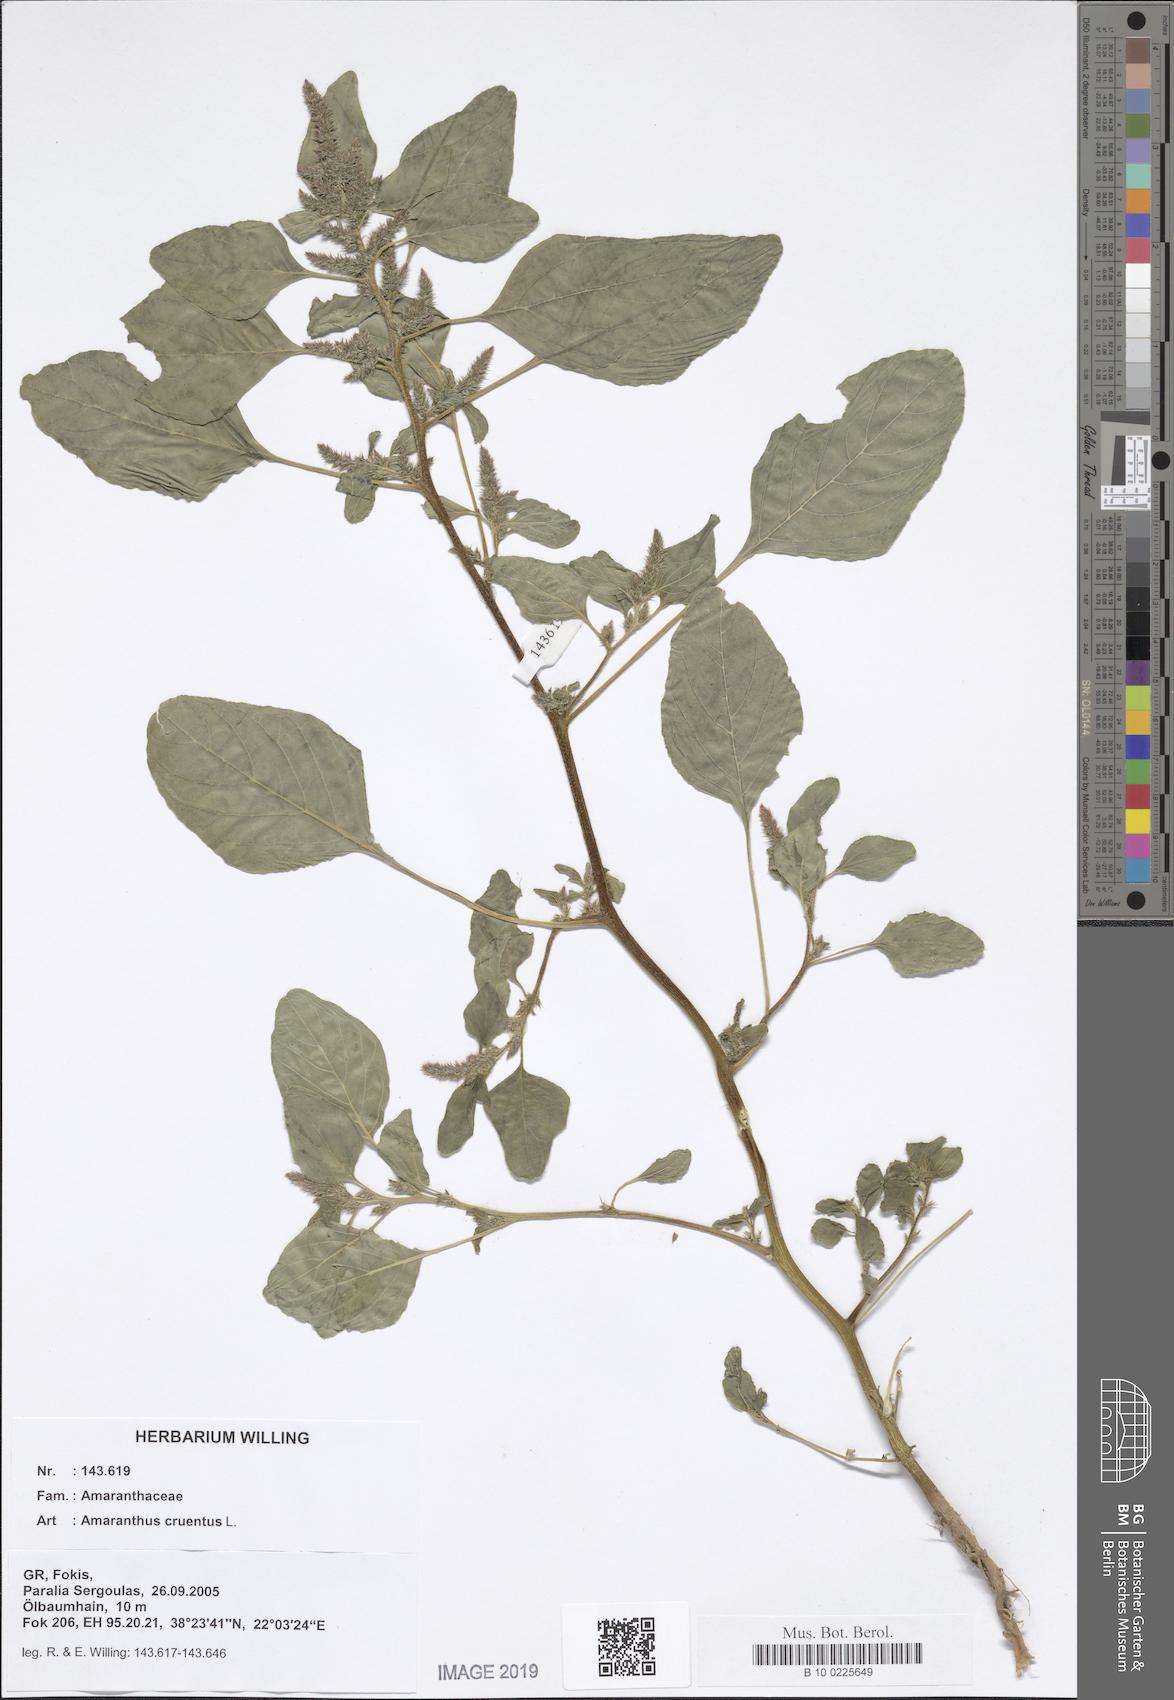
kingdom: Plantae
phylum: Tracheophyta
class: Magnoliopsida
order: Caryophyllales
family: Amaranthaceae
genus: Amaranthus
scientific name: Amaranthus cruentus
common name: Purple amaranth
